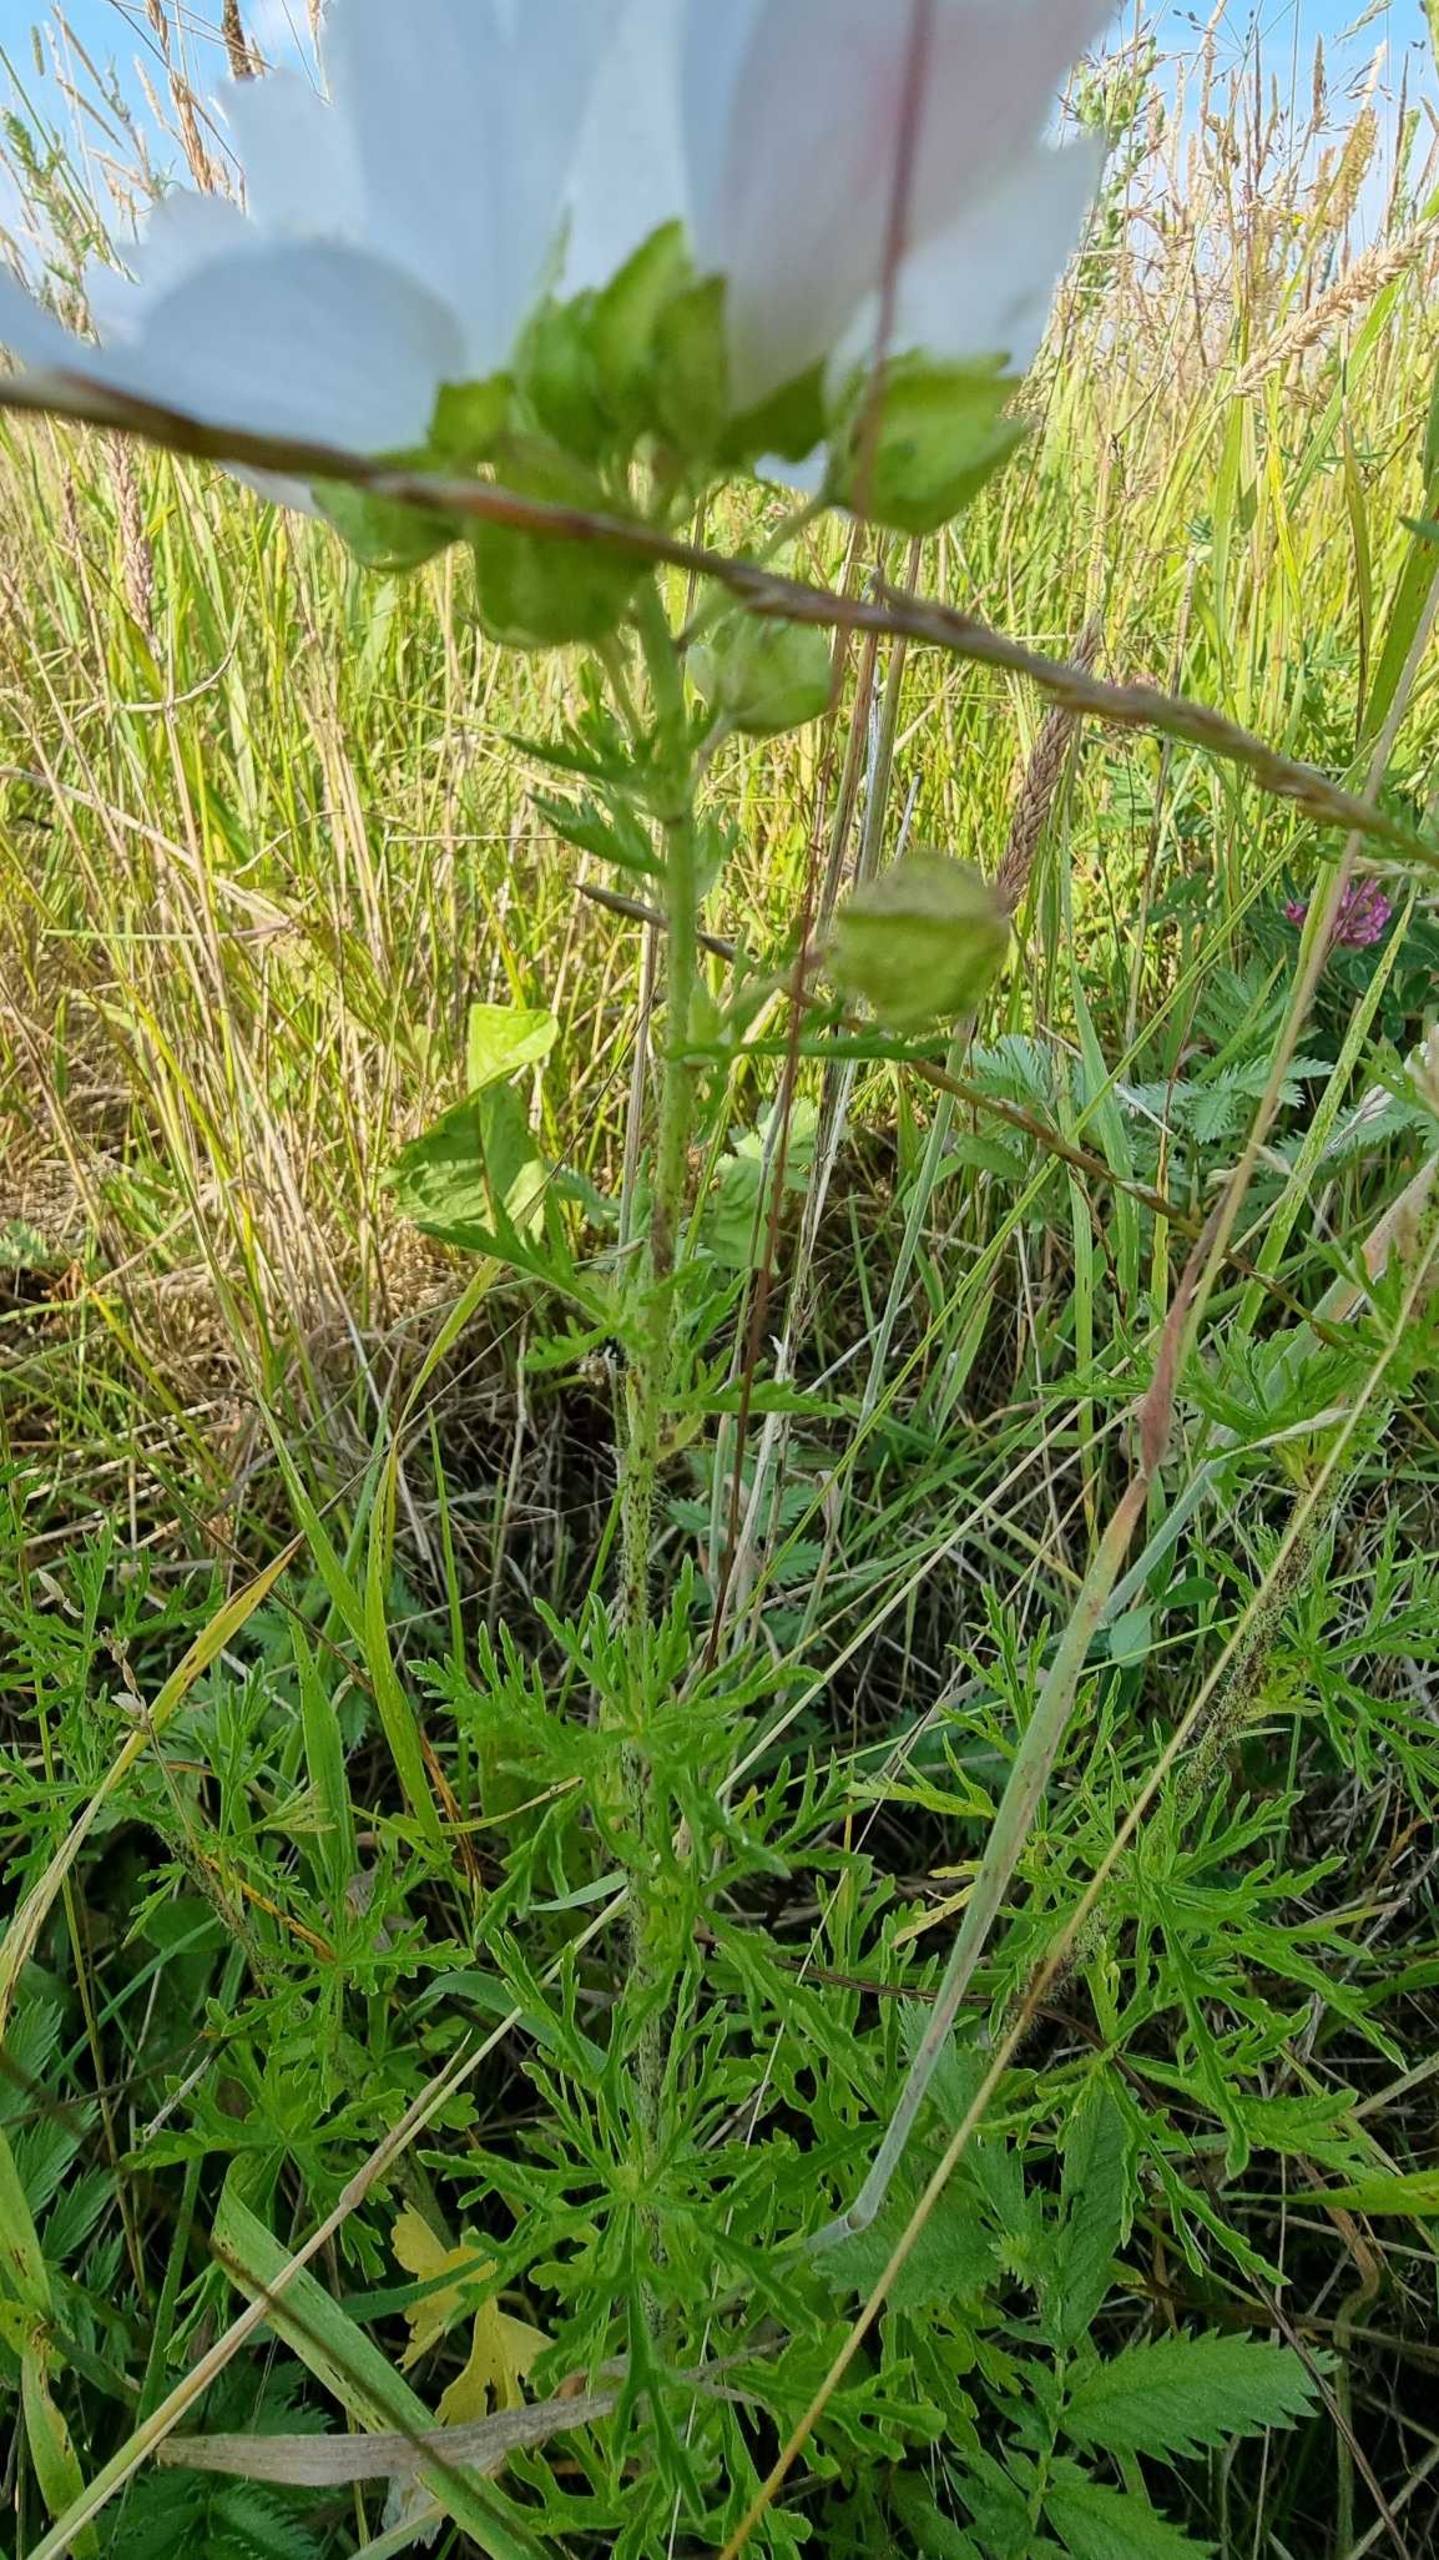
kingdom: Plantae
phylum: Tracheophyta
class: Magnoliopsida
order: Malvales
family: Malvaceae
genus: Malva
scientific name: Malva moschata
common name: Moskus-katost
